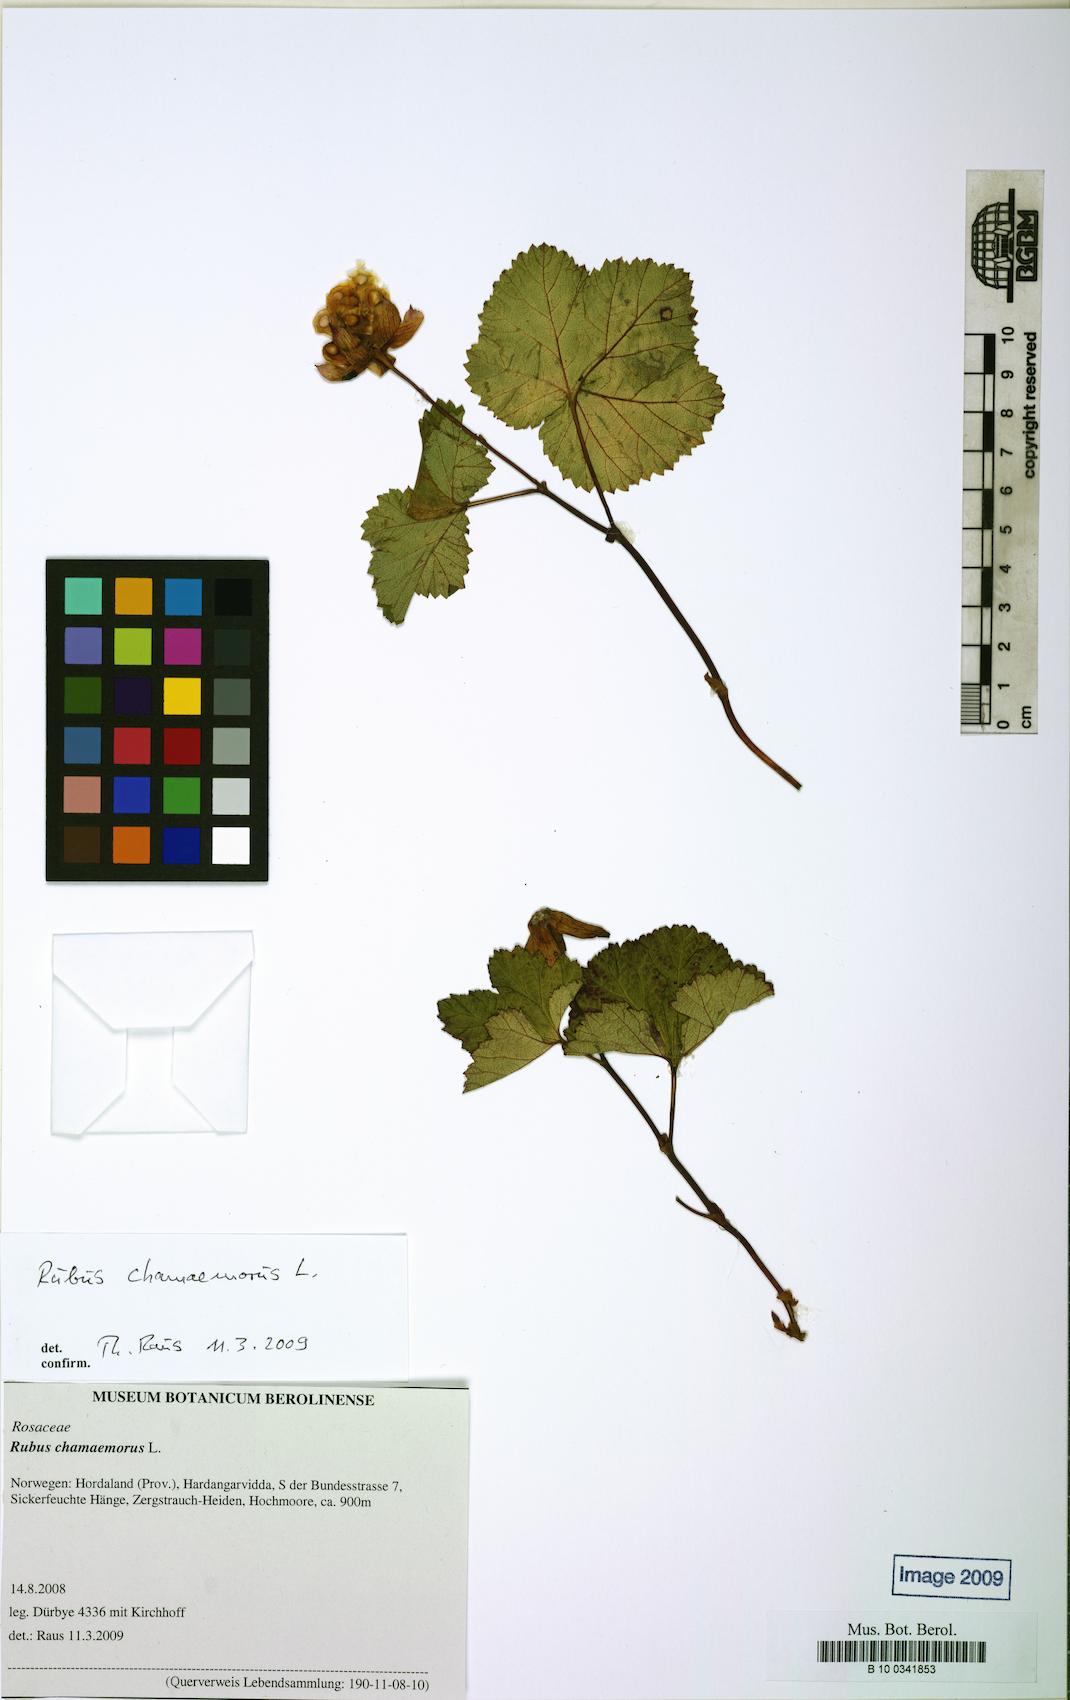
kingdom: Plantae
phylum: Tracheophyta
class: Magnoliopsida
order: Rosales
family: Rosaceae
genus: Rubus
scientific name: Rubus chamaemorus
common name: Cloudberry
